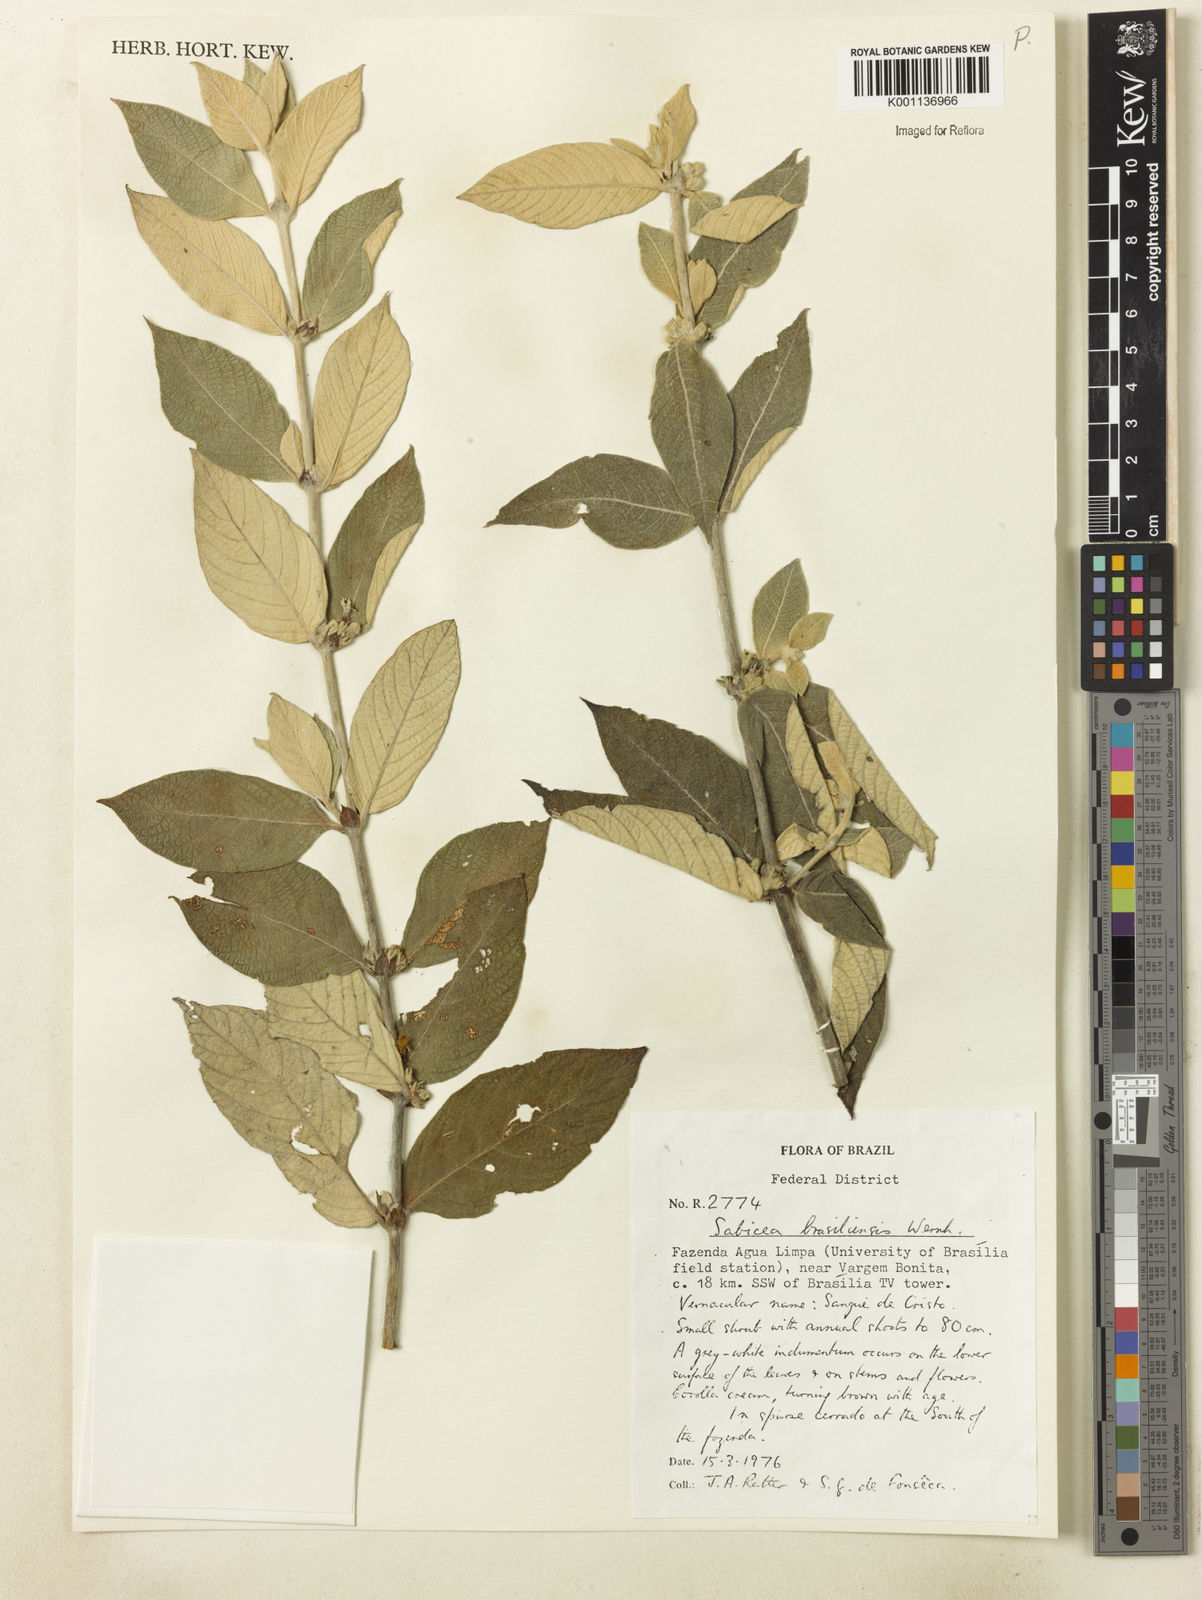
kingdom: Plantae
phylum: Tracheophyta
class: Magnoliopsida
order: Gentianales
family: Rubiaceae
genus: Sabicea
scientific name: Sabicea brasiliensis
